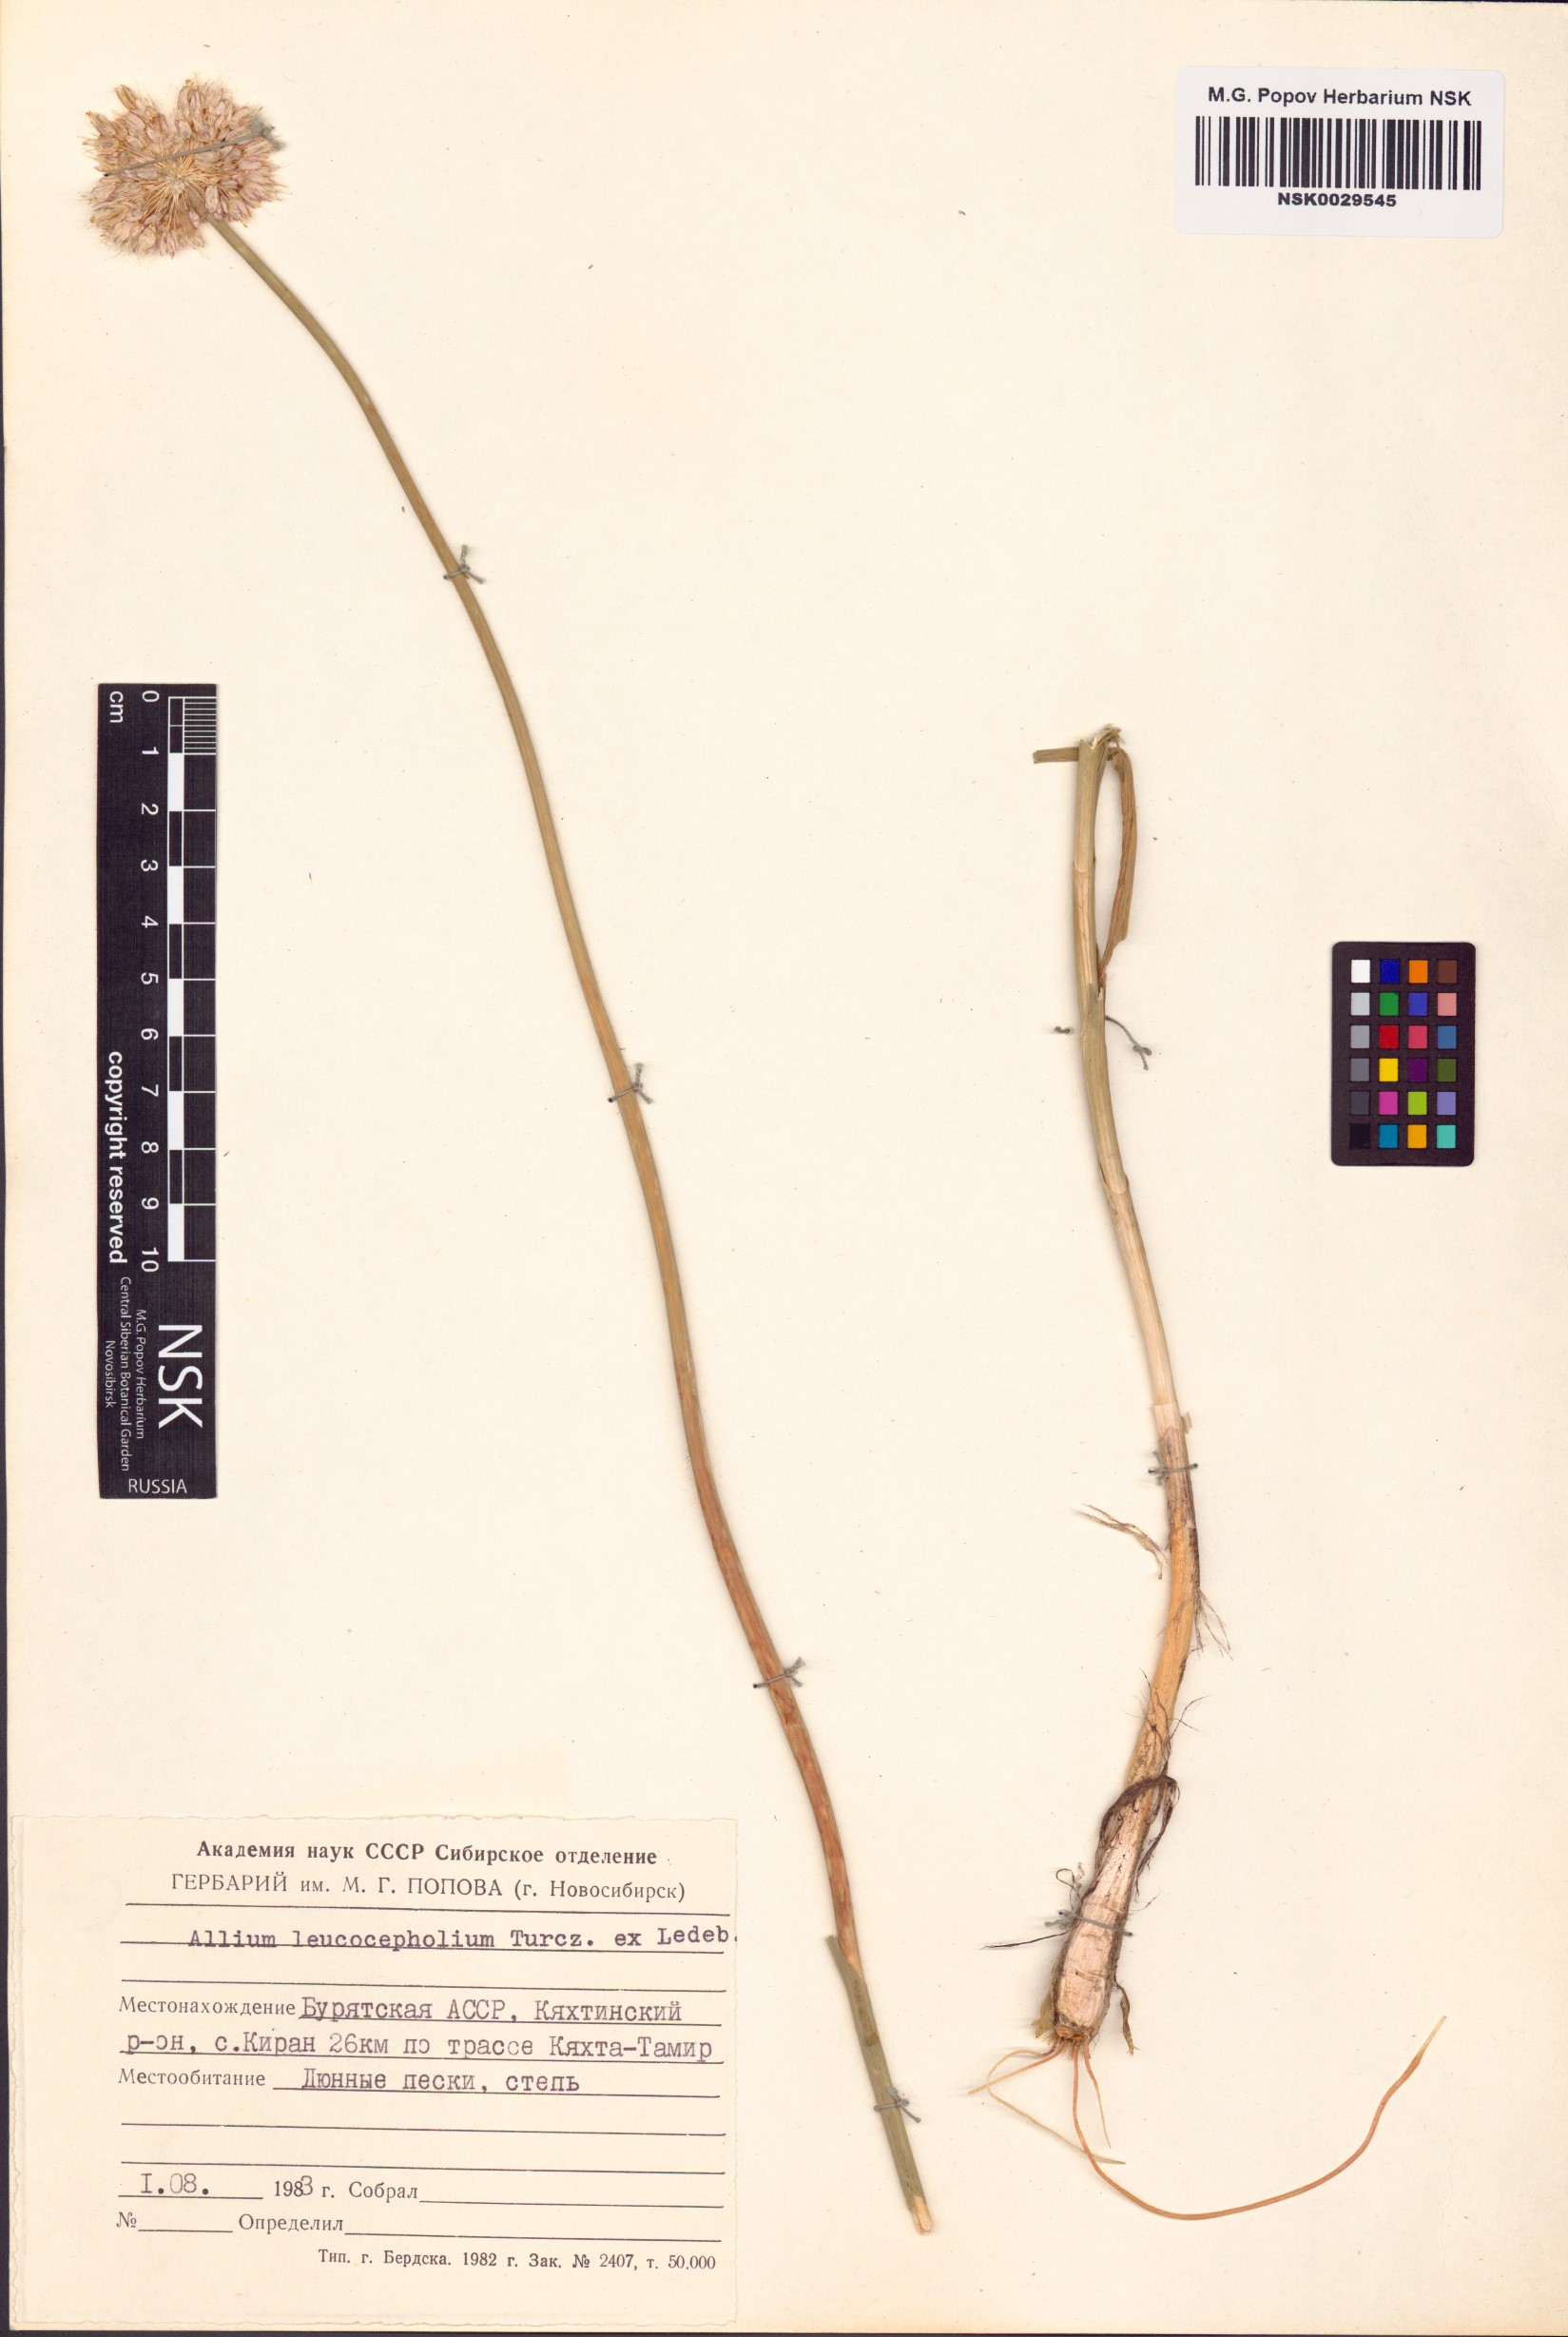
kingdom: Plantae
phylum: Tracheophyta
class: Liliopsida
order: Asparagales
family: Amaryllidaceae
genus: Allium
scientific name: Allium leucocephalum
